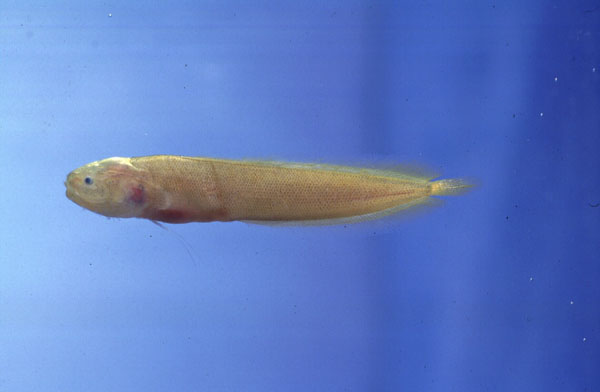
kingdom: Animalia
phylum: Chordata
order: Ophidiiformes
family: Bythitidae
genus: Dinematichthys
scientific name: Dinematichthys iluocoeteoides
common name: Small eye brotula
